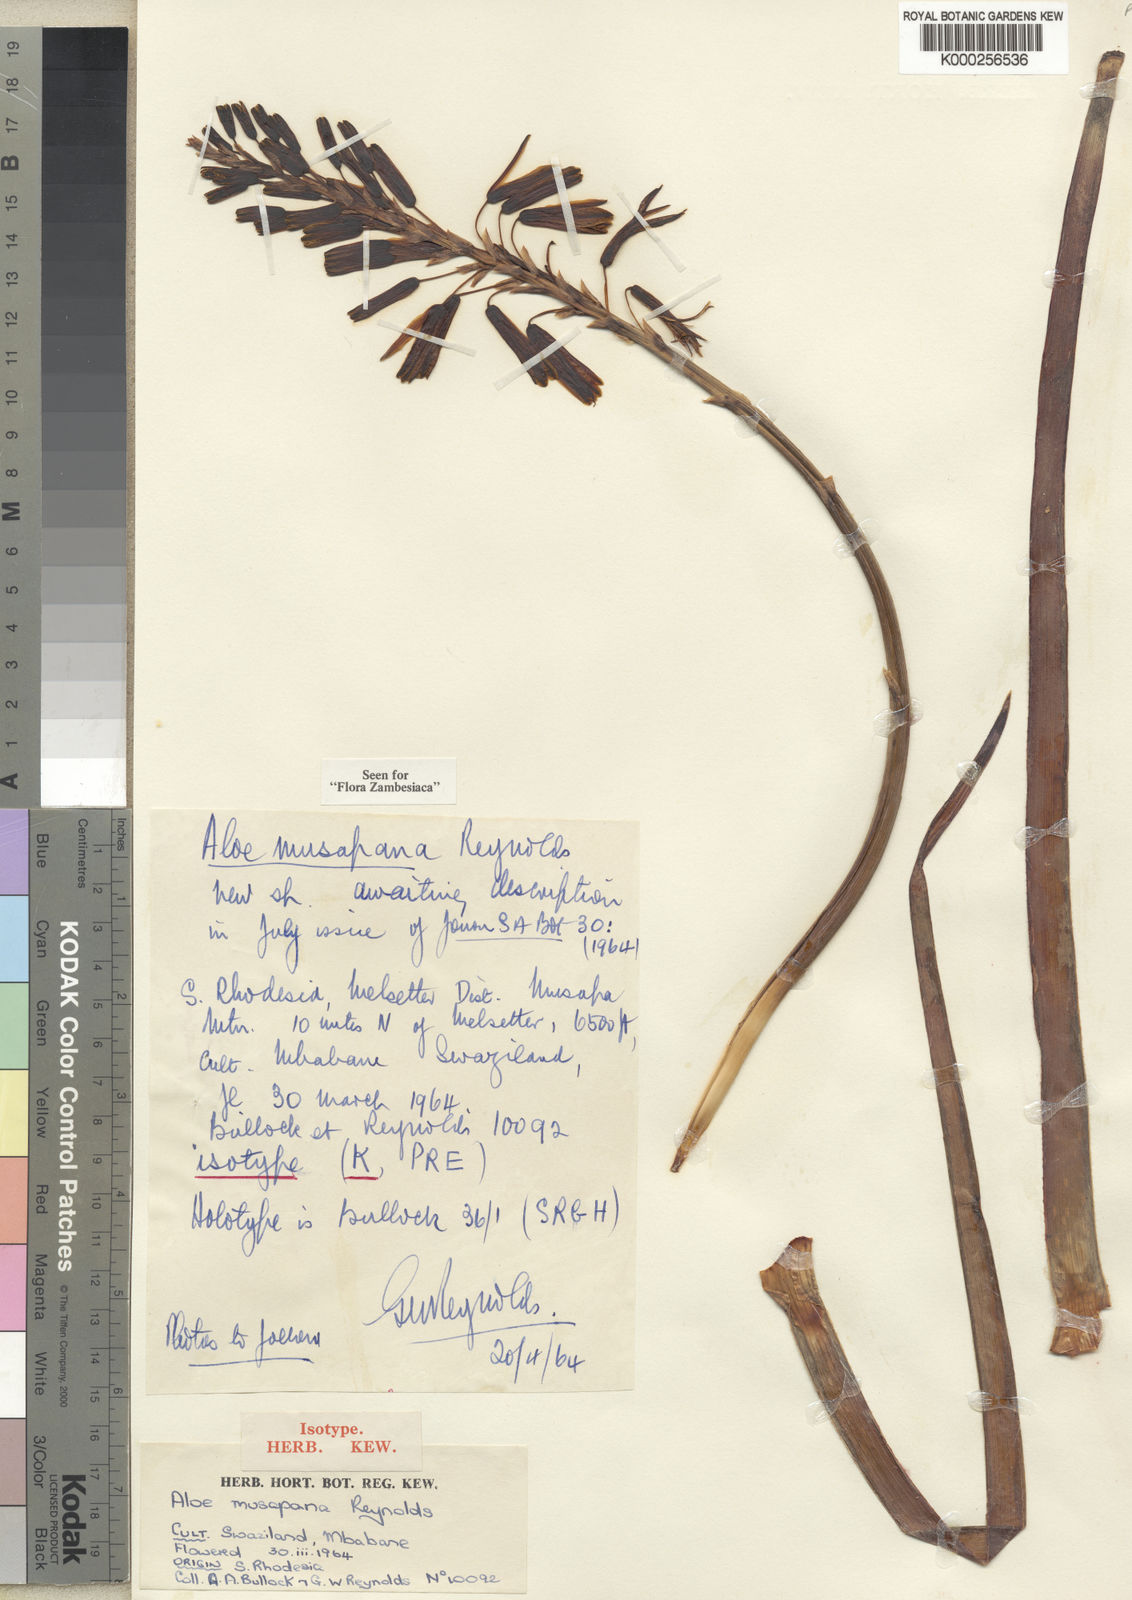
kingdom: Plantae
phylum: Tracheophyta
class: Liliopsida
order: Asparagales
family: Asphodelaceae
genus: Aloe
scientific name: Aloe musapana
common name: Musapa aloe
